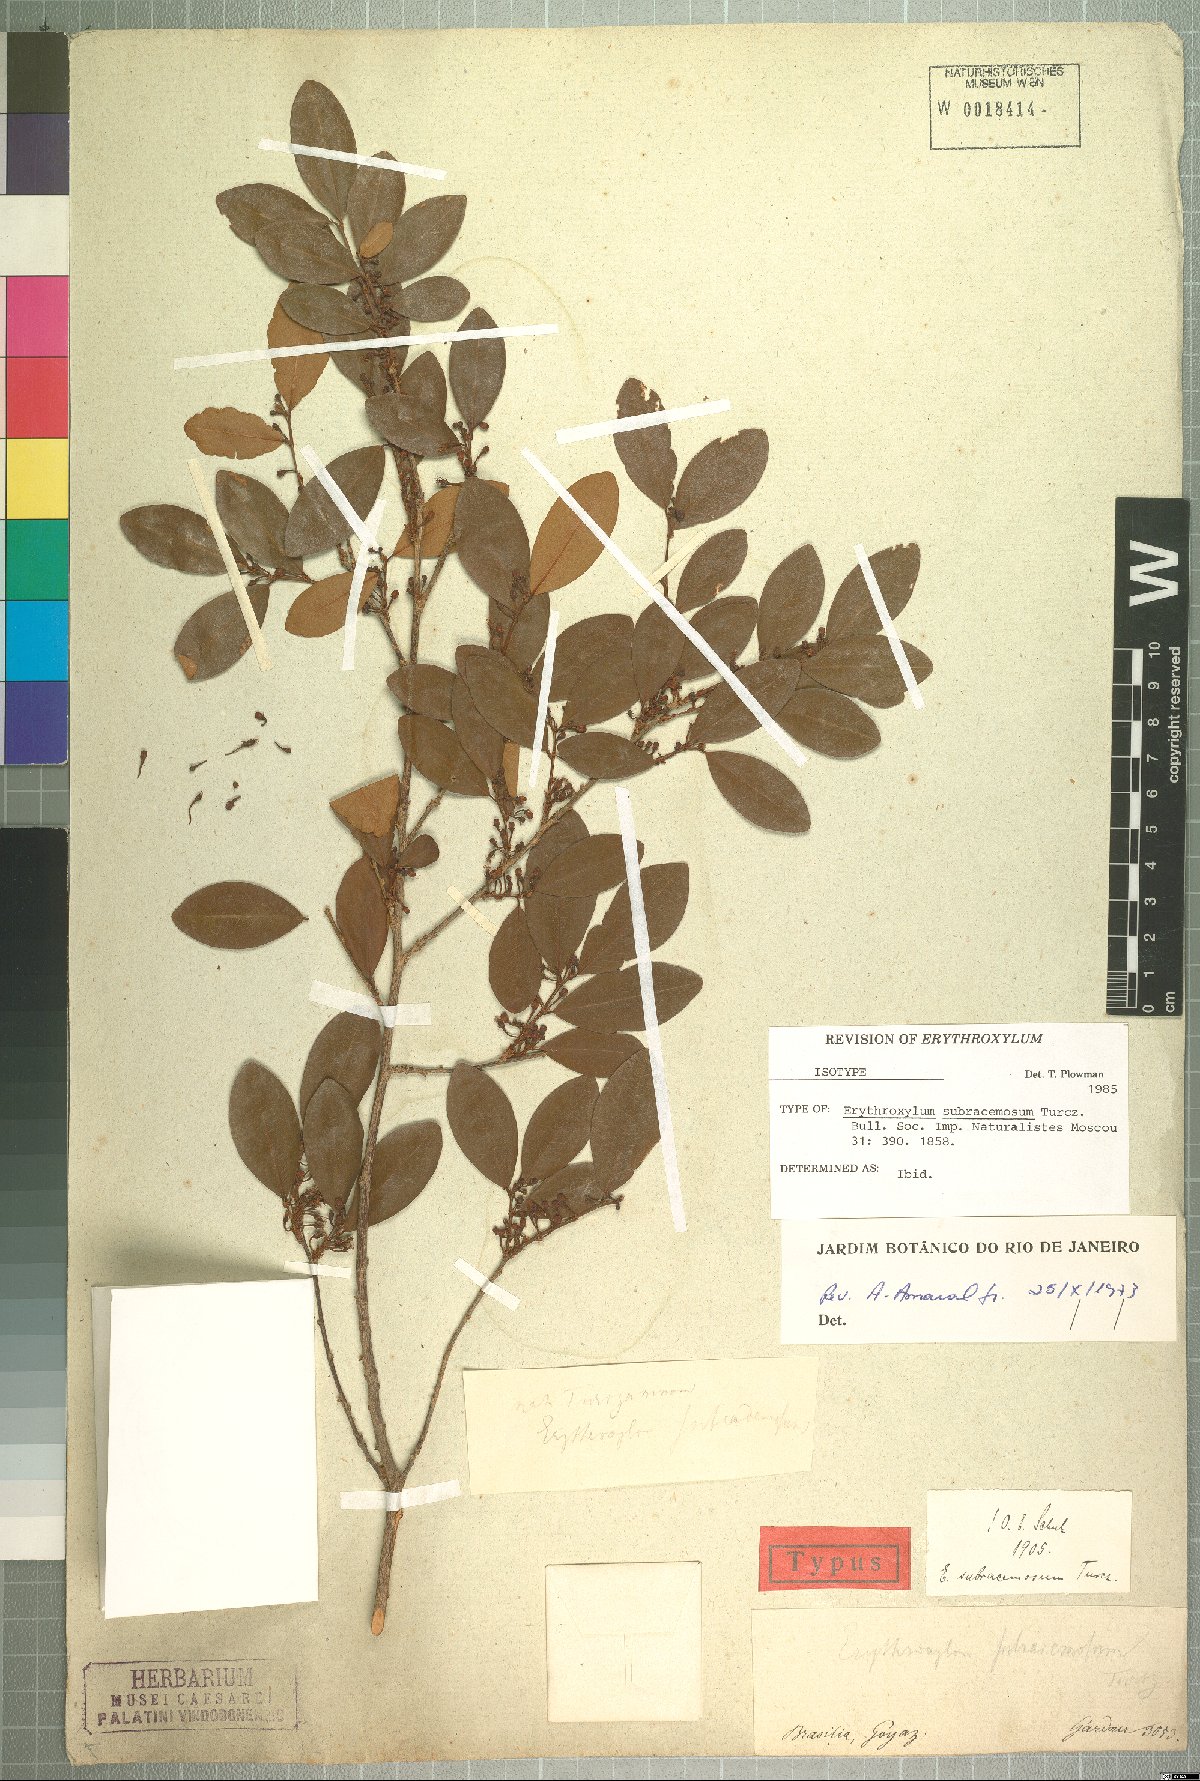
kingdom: Plantae
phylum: Tracheophyta
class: Magnoliopsida
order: Malpighiales
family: Erythroxylaceae
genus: Erythroxylum
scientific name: Erythroxylum subracemosum
